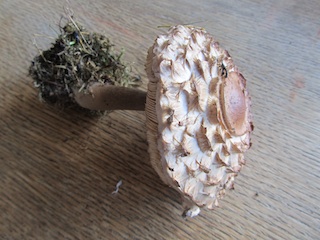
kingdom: Fungi
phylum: Basidiomycota
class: Agaricomycetes
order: Agaricales
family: Agaricaceae
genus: Chlorophyllum
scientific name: Chlorophyllum rhacodes
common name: ægte rabarberhat
